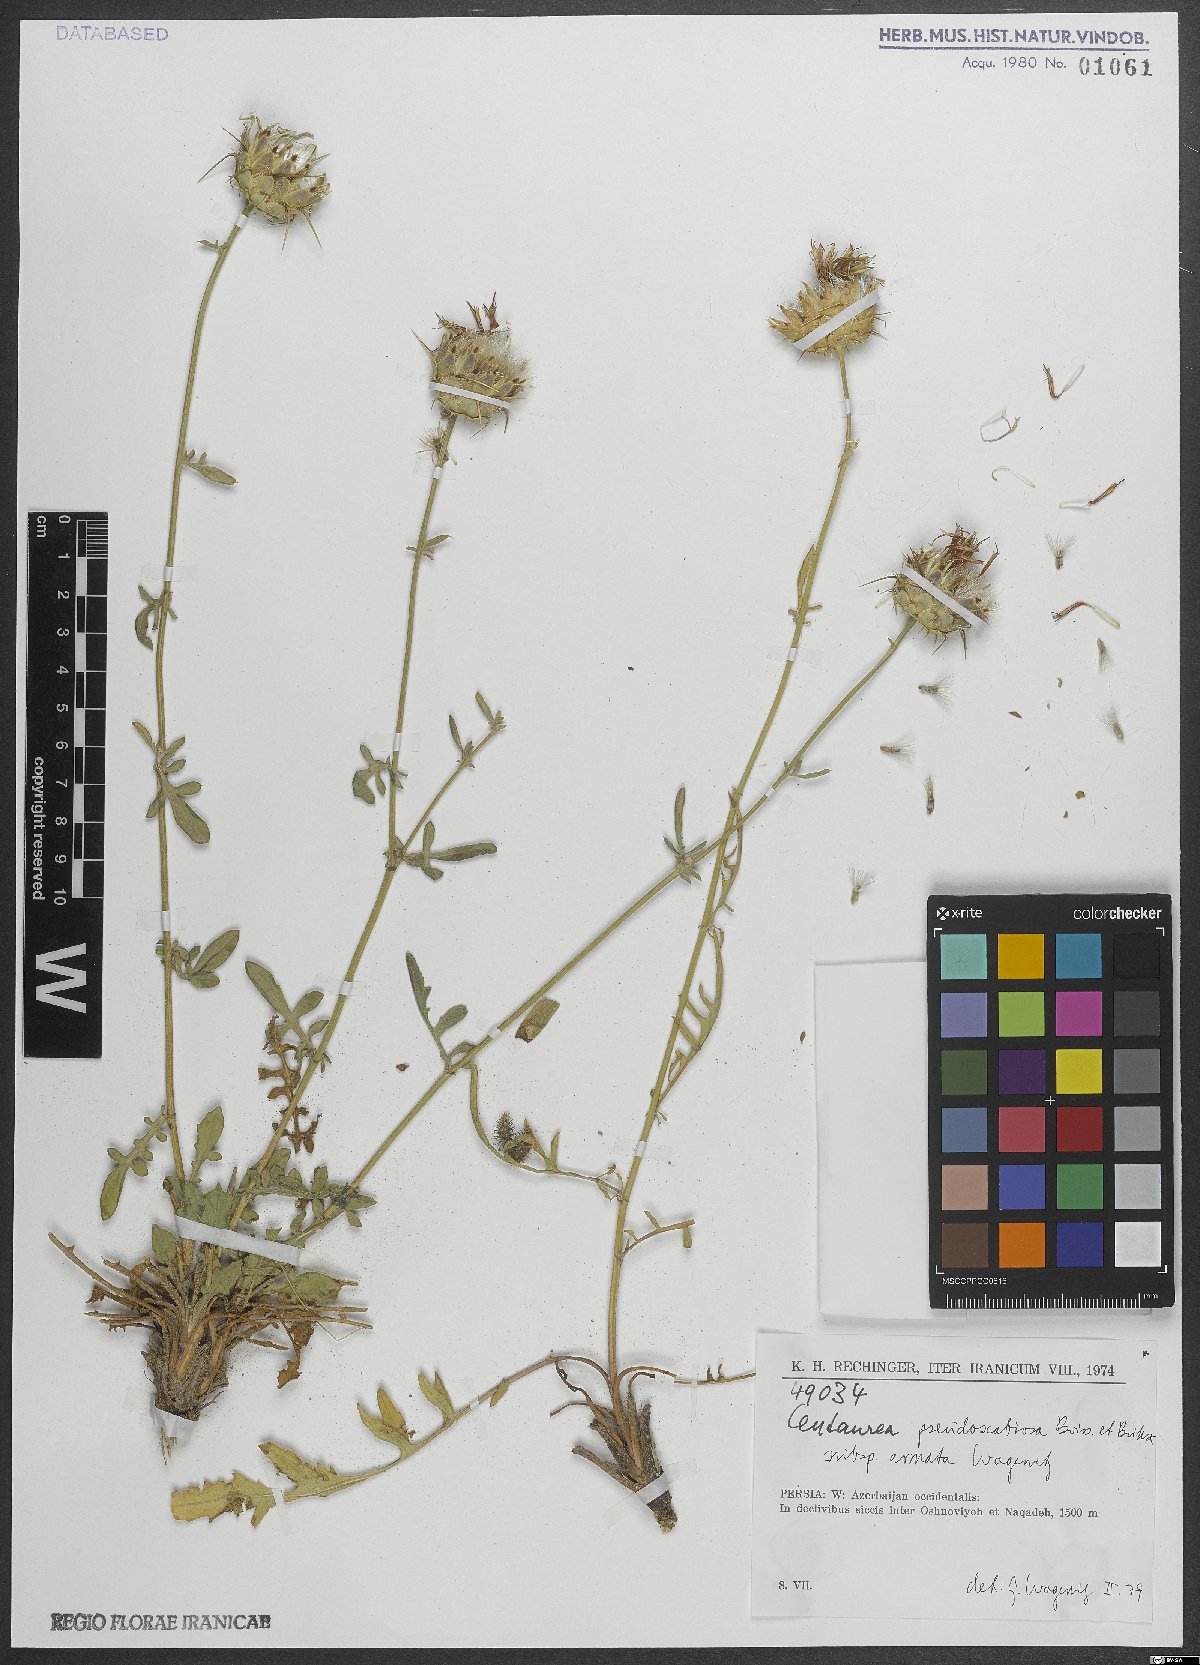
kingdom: Plantae
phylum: Tracheophyta
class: Magnoliopsida
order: Asterales
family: Asteraceae
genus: Centaurea
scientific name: Centaurea pseudoscabiosa
